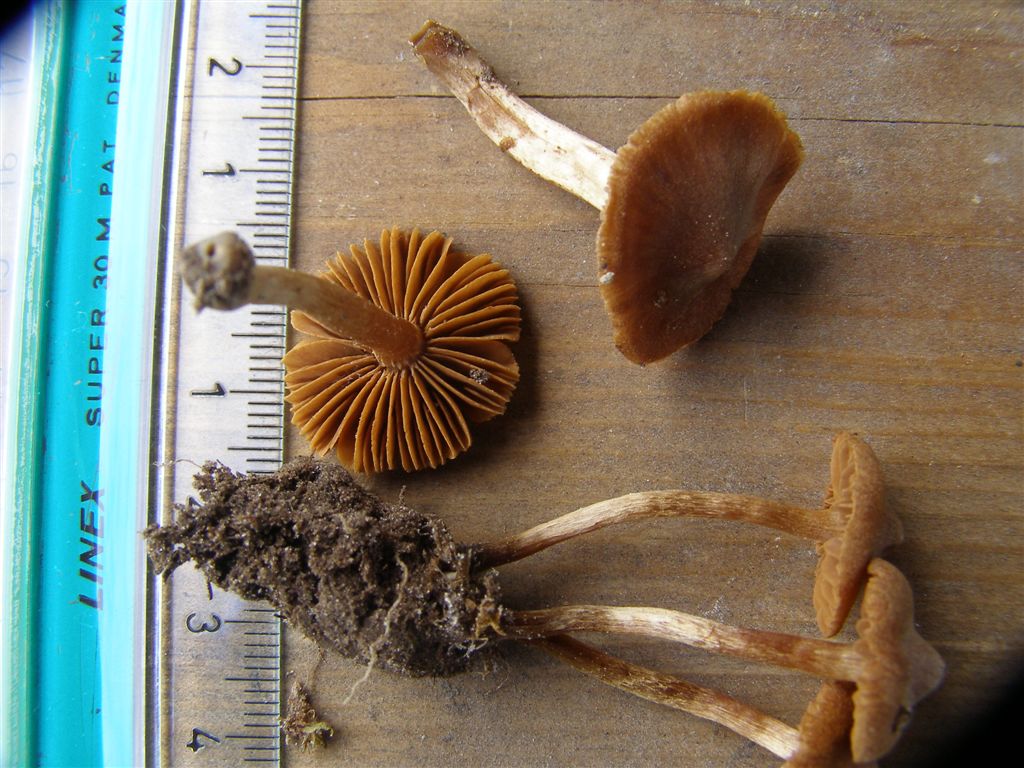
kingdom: Fungi
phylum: Basidiomycota
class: Agaricomycetes
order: Agaricales
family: Cortinariaceae
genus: Cortinarius
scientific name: Cortinarius denigratoides
